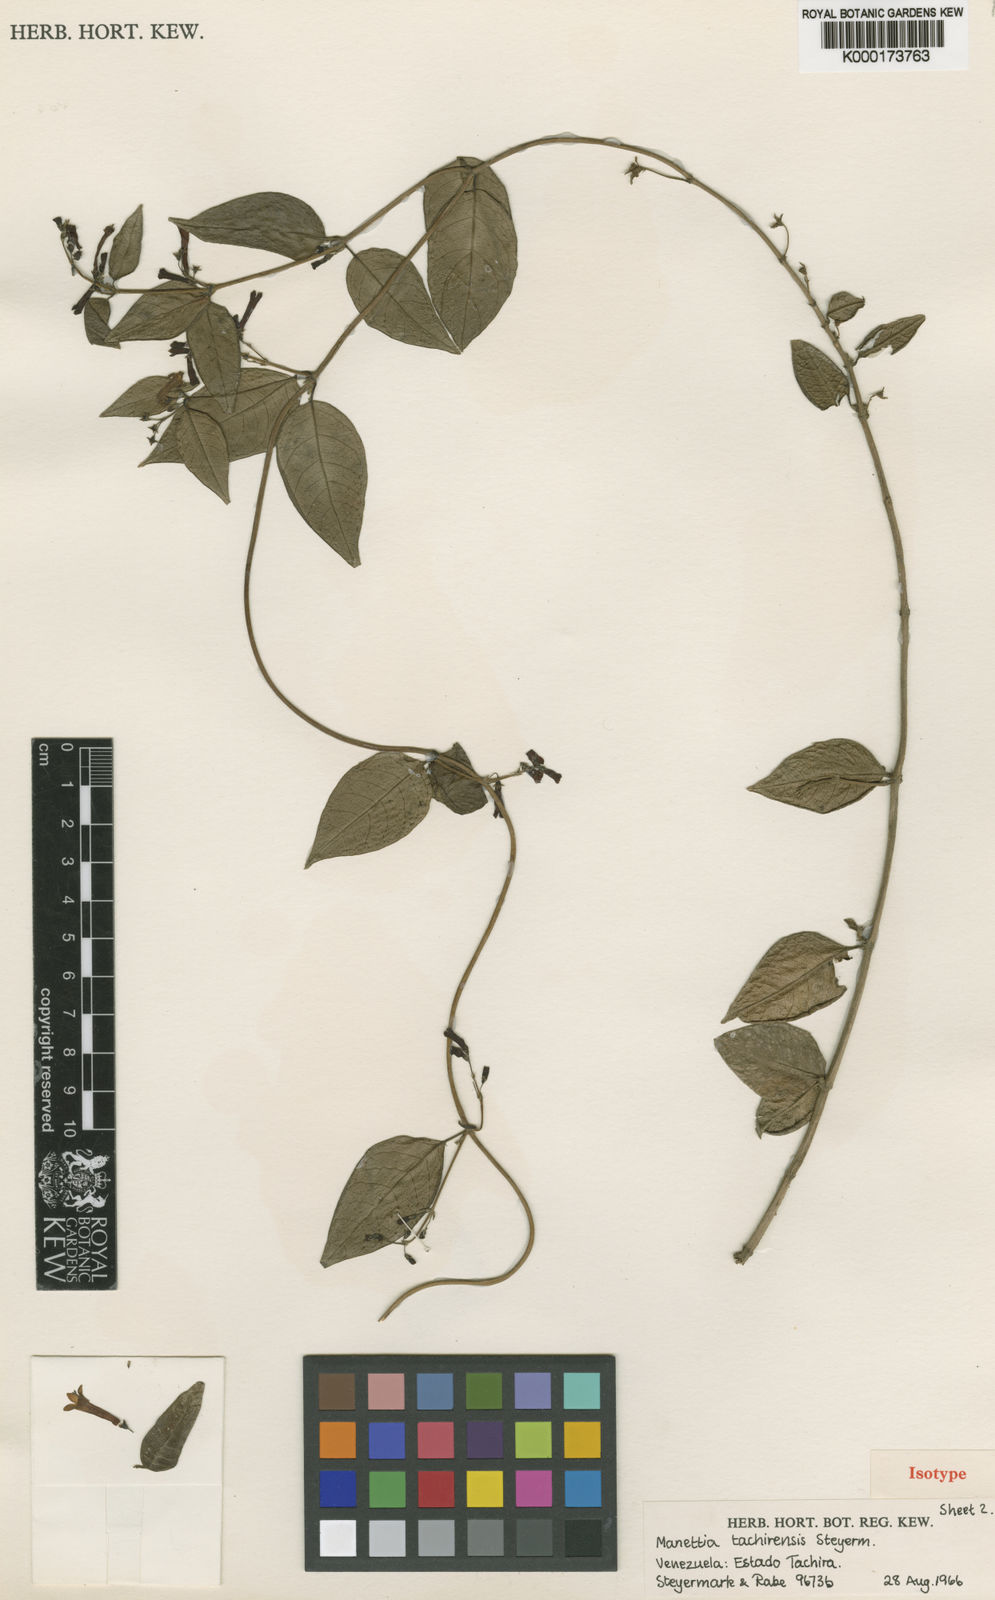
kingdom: Plantae
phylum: Tracheophyta
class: Magnoliopsida
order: Gentianales
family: Rubiaceae
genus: Manettia
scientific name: Manettia tachirensis
